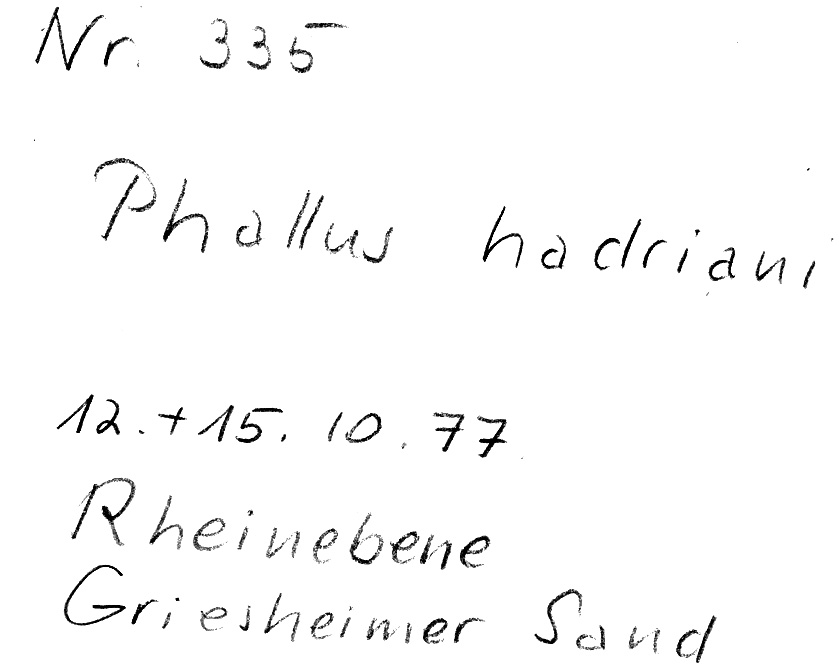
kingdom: Fungi
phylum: Basidiomycota
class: Agaricomycetes
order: Phallales
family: Phallaceae
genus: Phallus
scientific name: Phallus hadriani
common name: Sand stinkhorn
